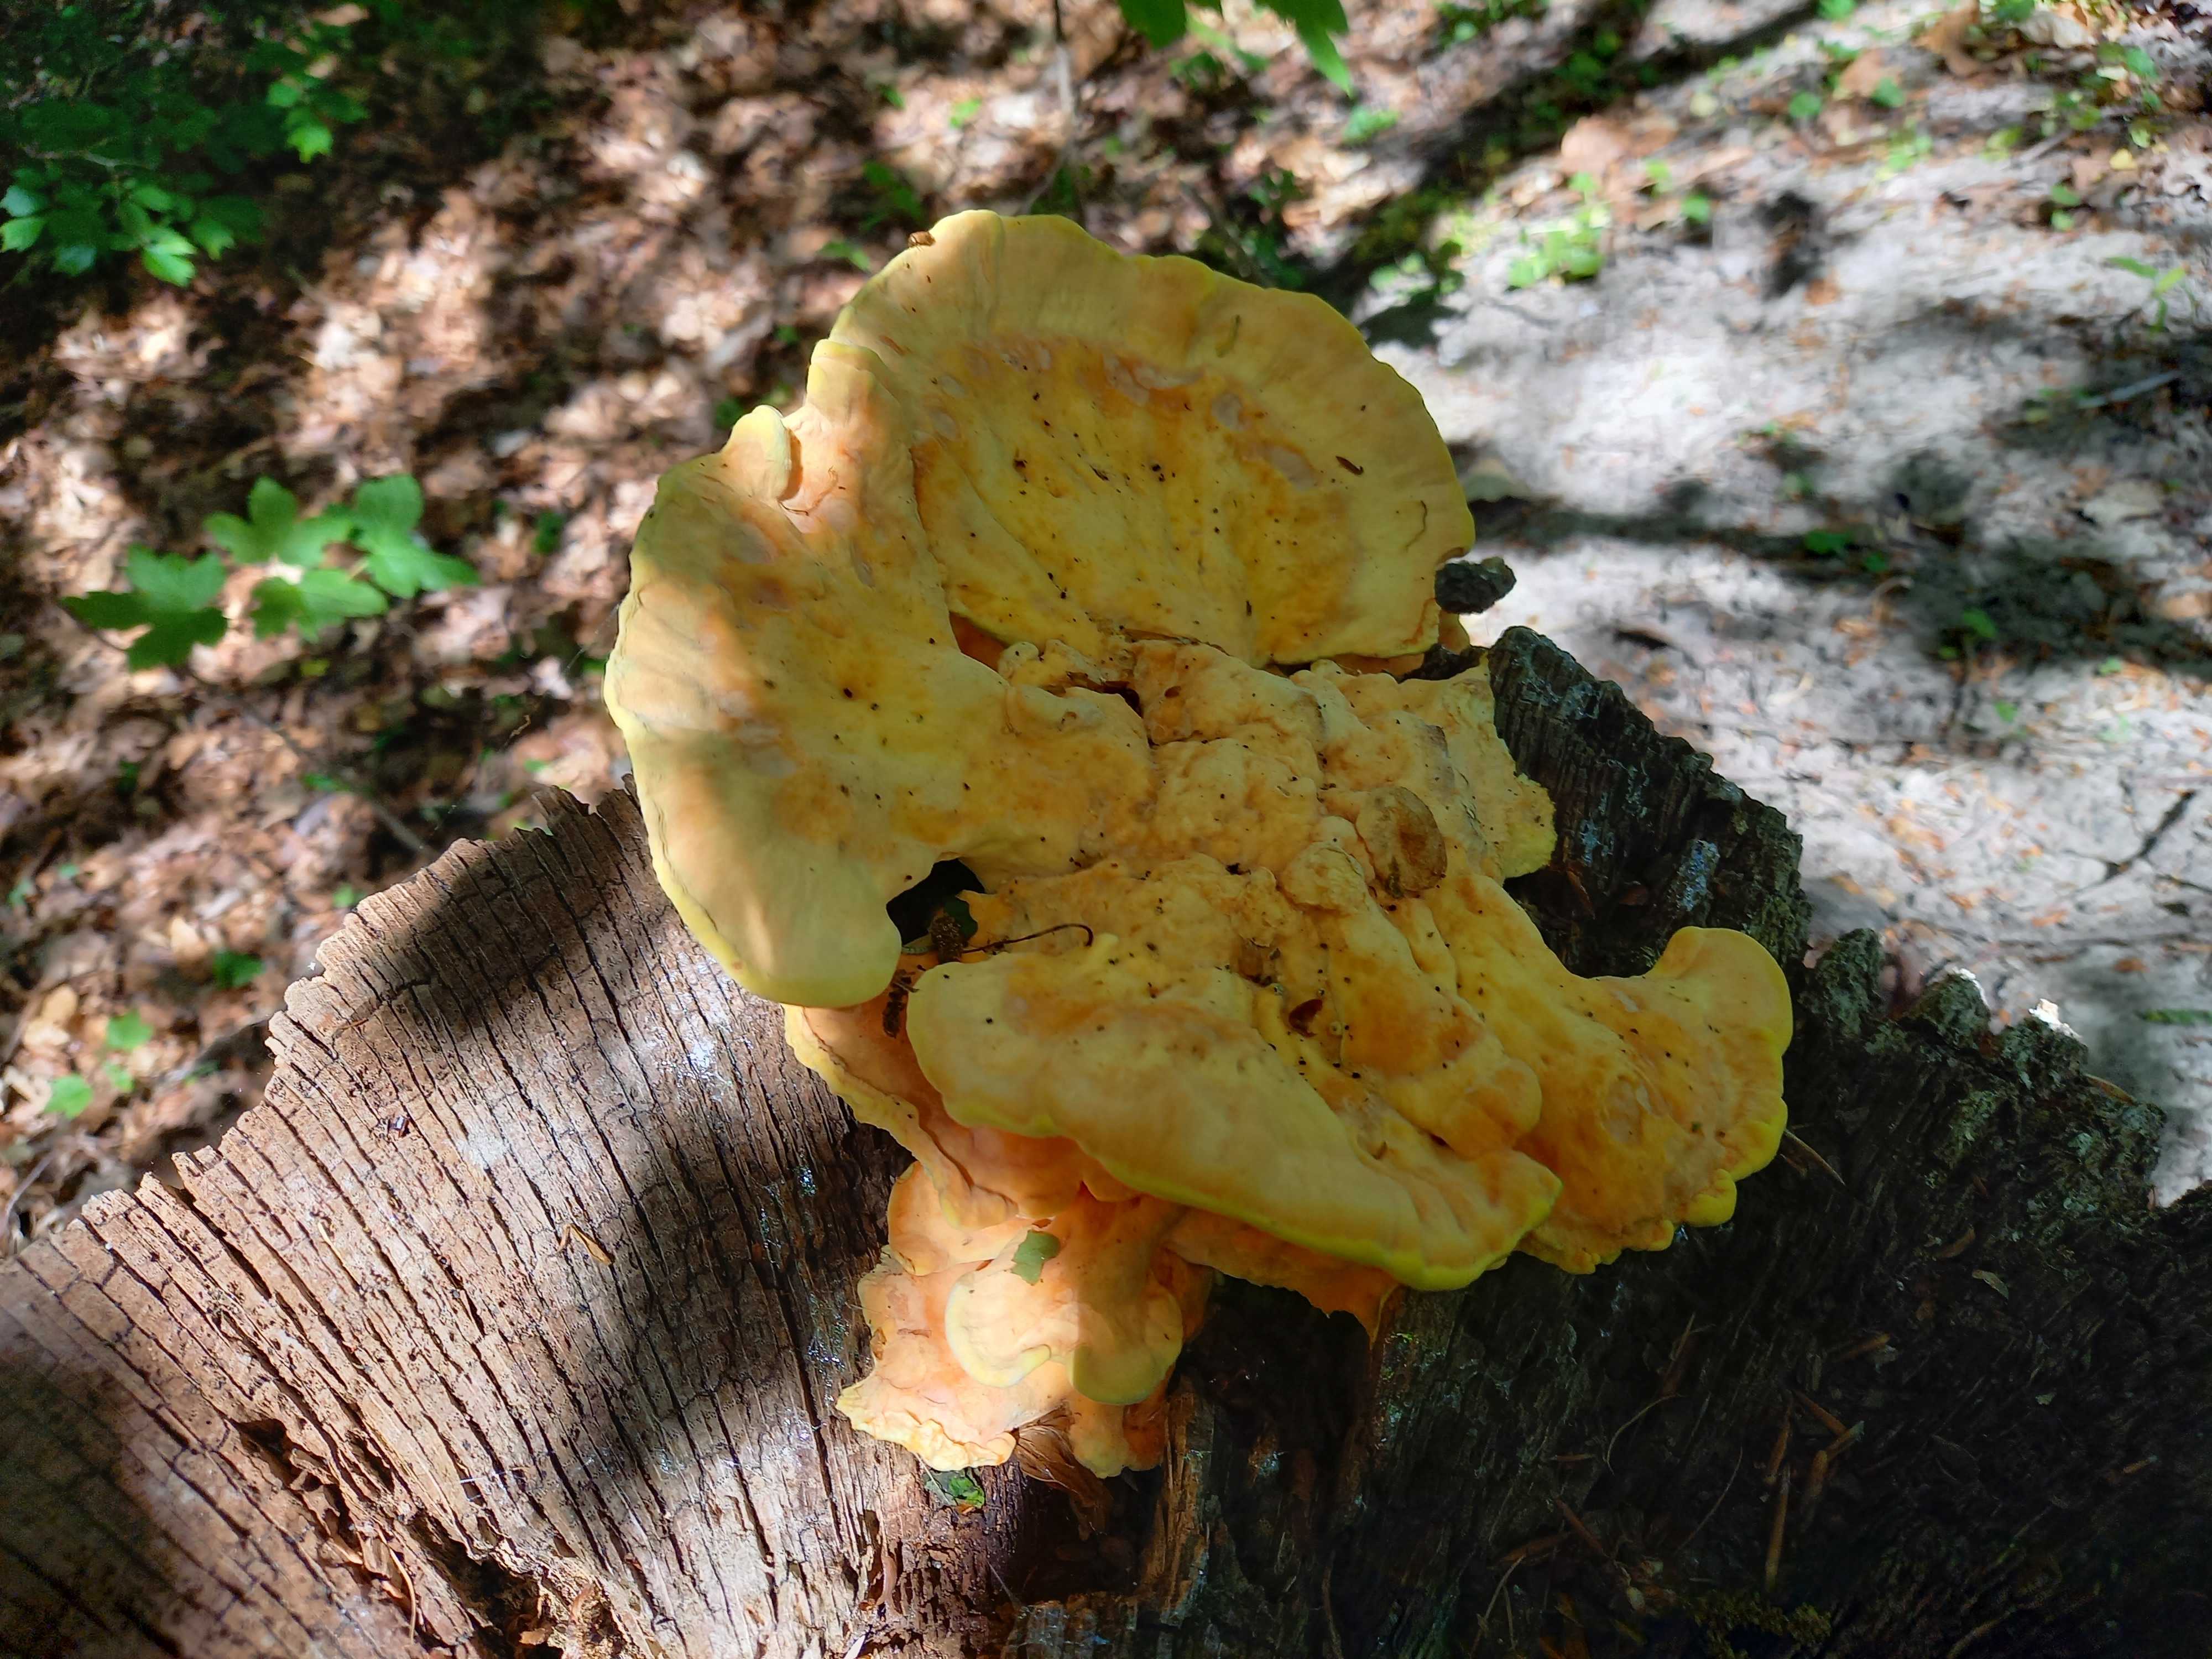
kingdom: Fungi
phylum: Basidiomycota
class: Agaricomycetes
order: Polyporales
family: Laetiporaceae
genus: Laetiporus
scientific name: Laetiporus sulphureus
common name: svovlporesvamp
